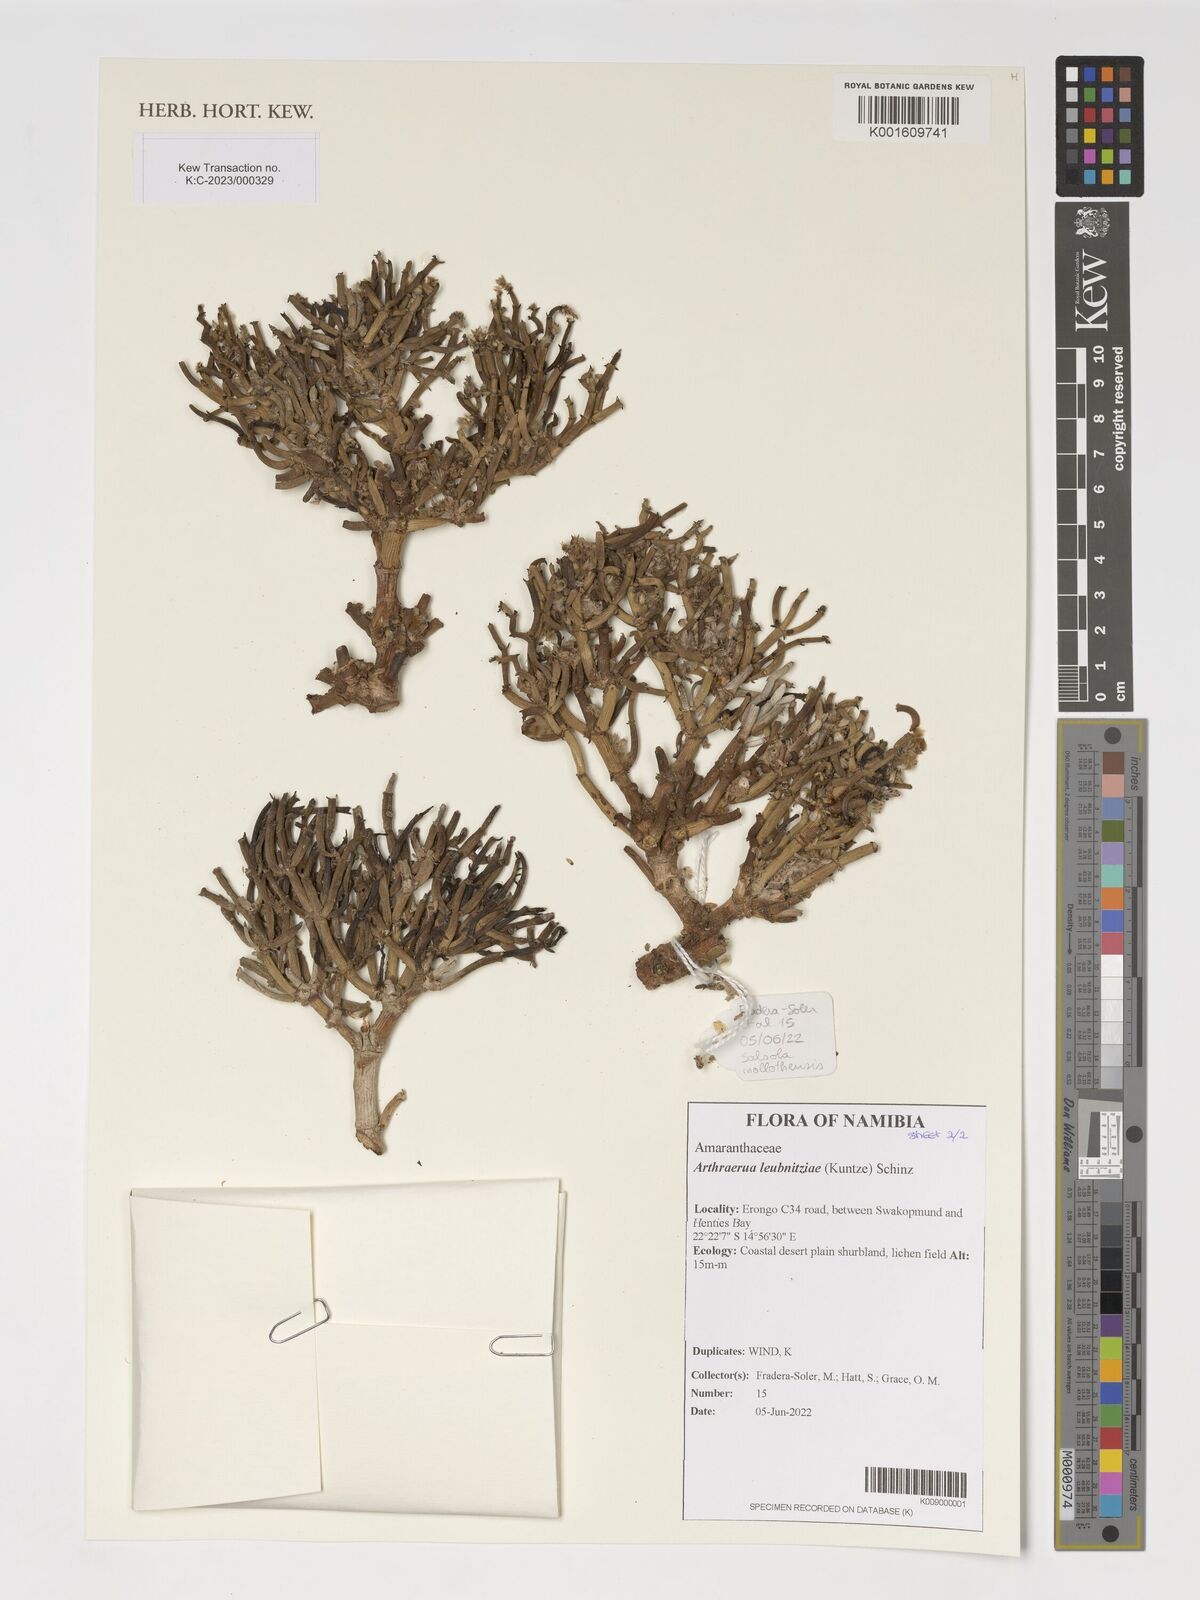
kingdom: Plantae
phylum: Tracheophyta
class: Magnoliopsida
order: Caryophyllales
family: Amaranthaceae
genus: Arthraerva
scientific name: Arthraerva leubnitziae
